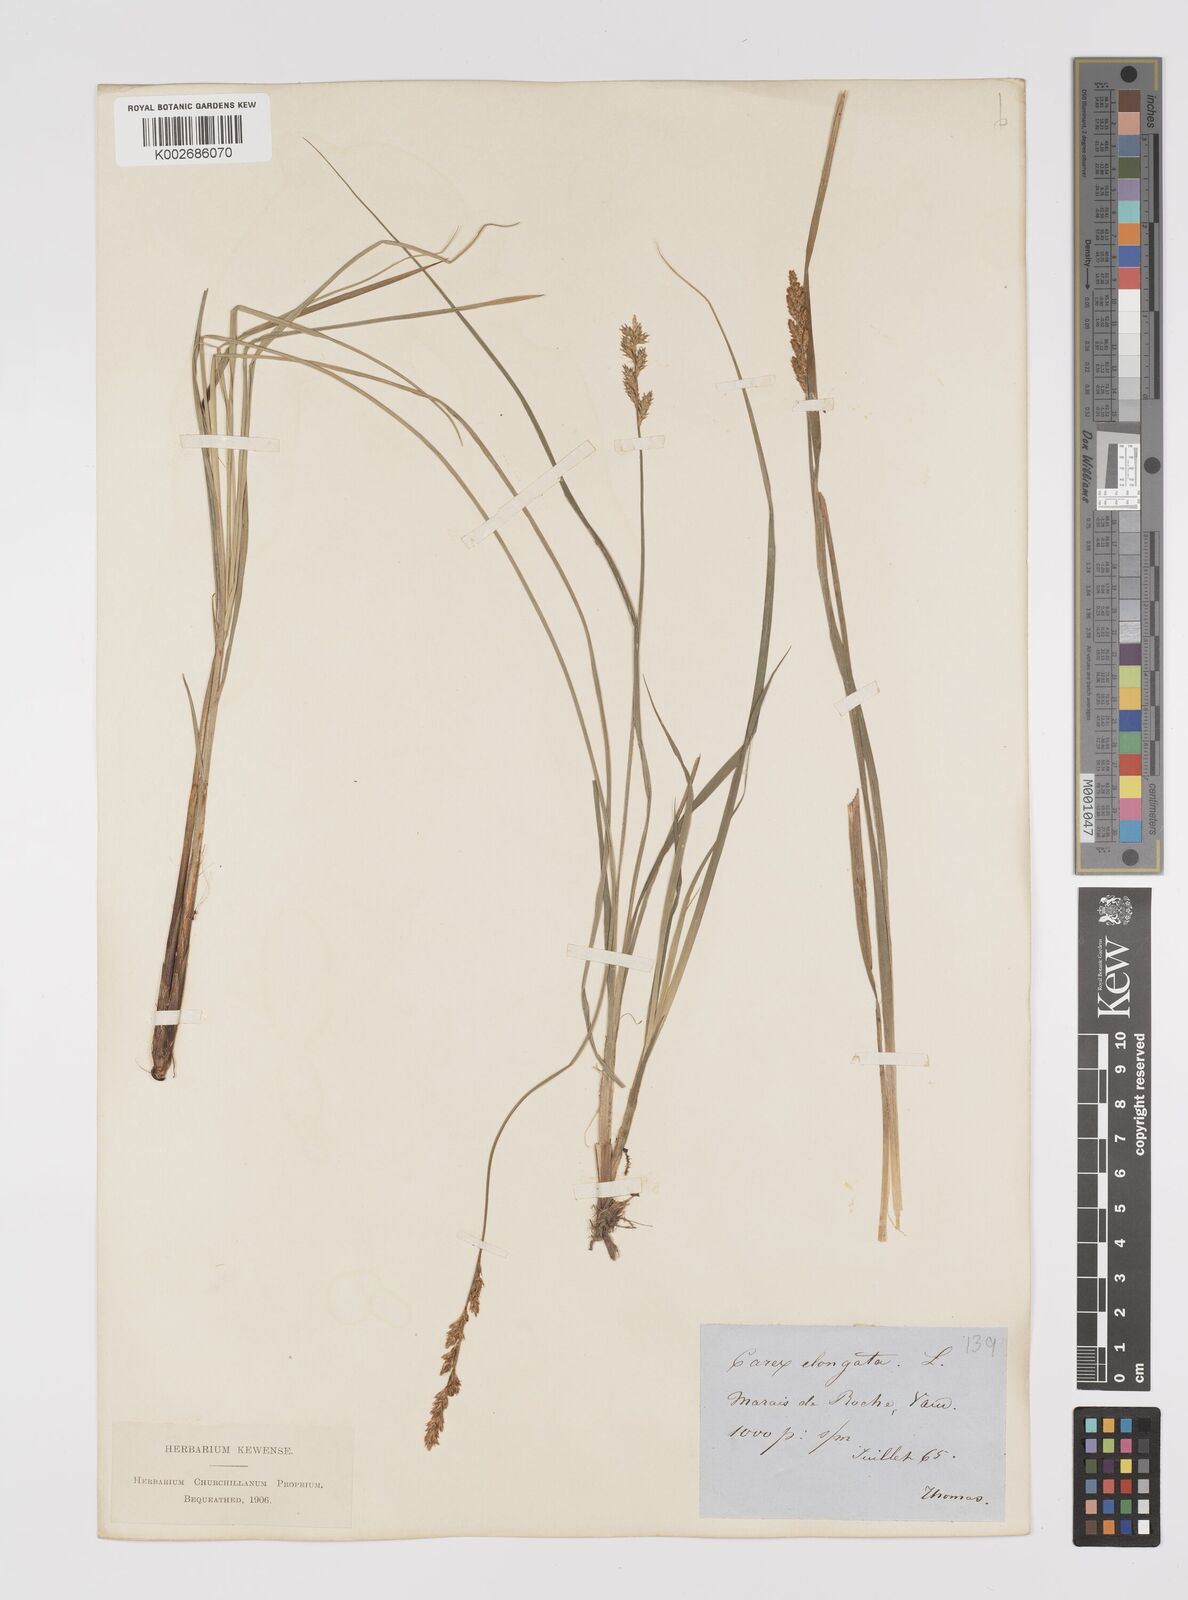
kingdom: Plantae
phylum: Tracheophyta
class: Liliopsida
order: Poales
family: Cyperaceae
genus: Carex
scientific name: Carex elongata
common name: Elongated sedge
